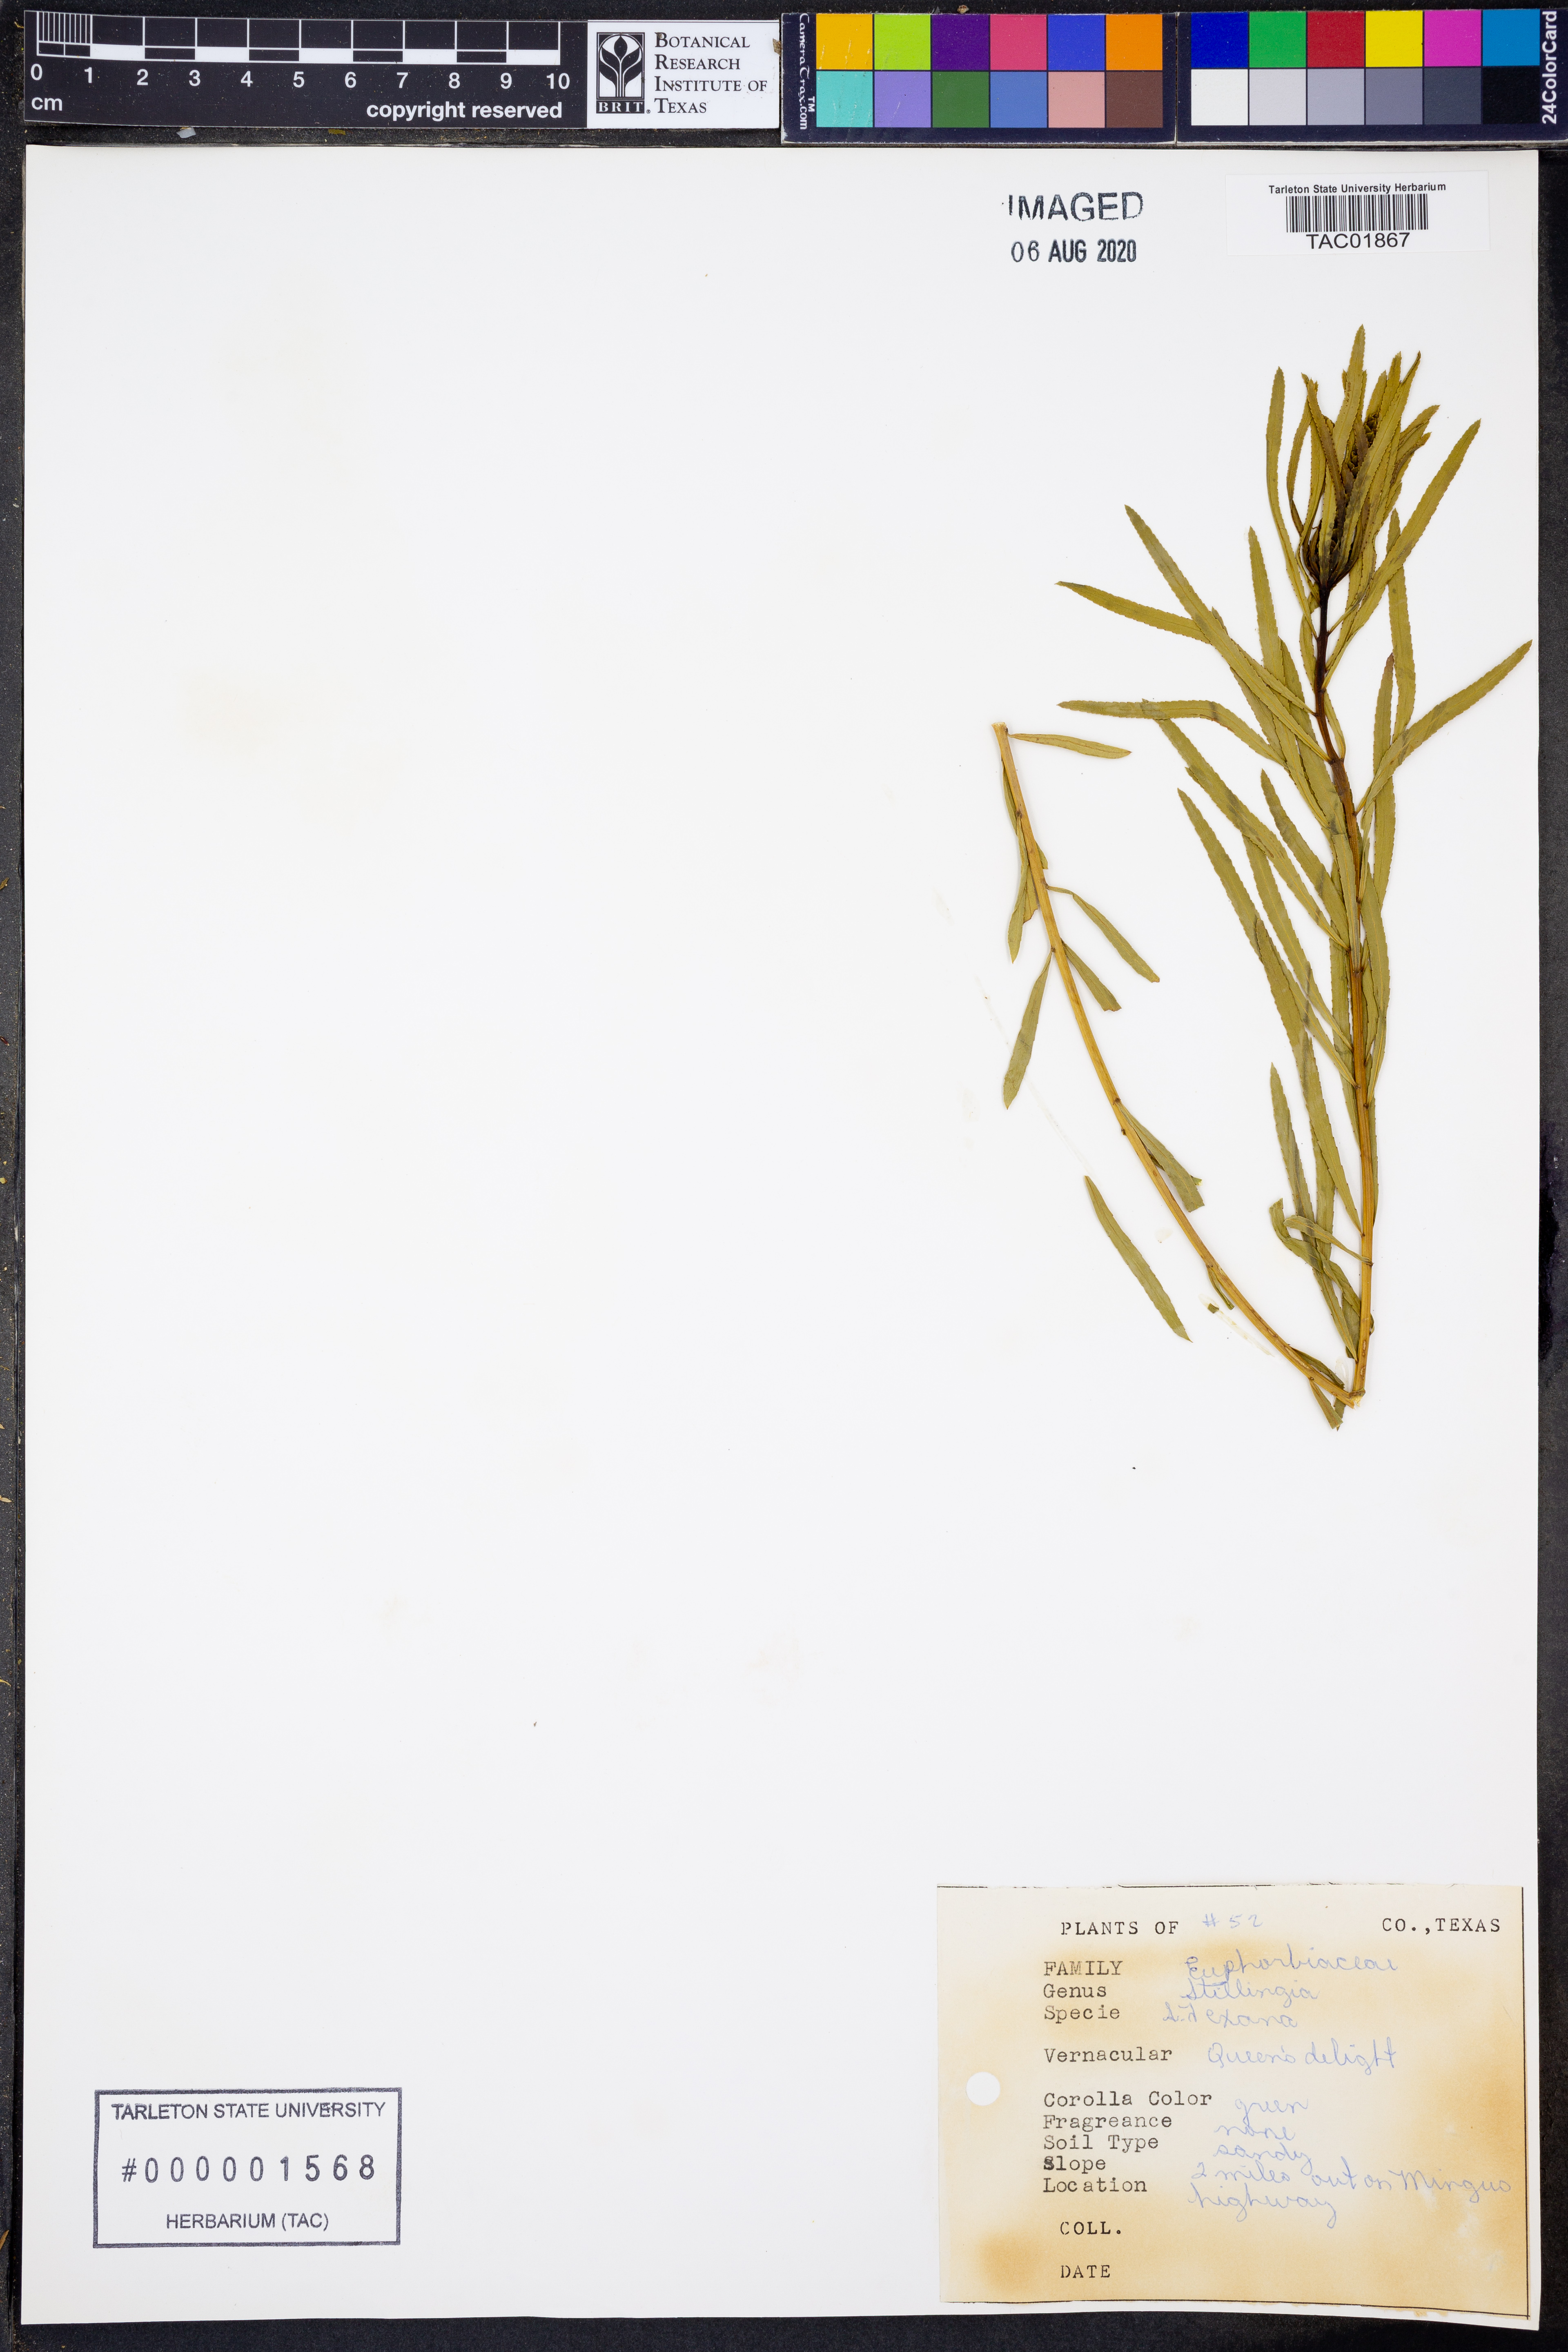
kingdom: Plantae
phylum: Tracheophyta
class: Magnoliopsida
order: Malpighiales
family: Euphorbiaceae
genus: Stillingia
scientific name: Stillingia texana
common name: Texas stillingia
